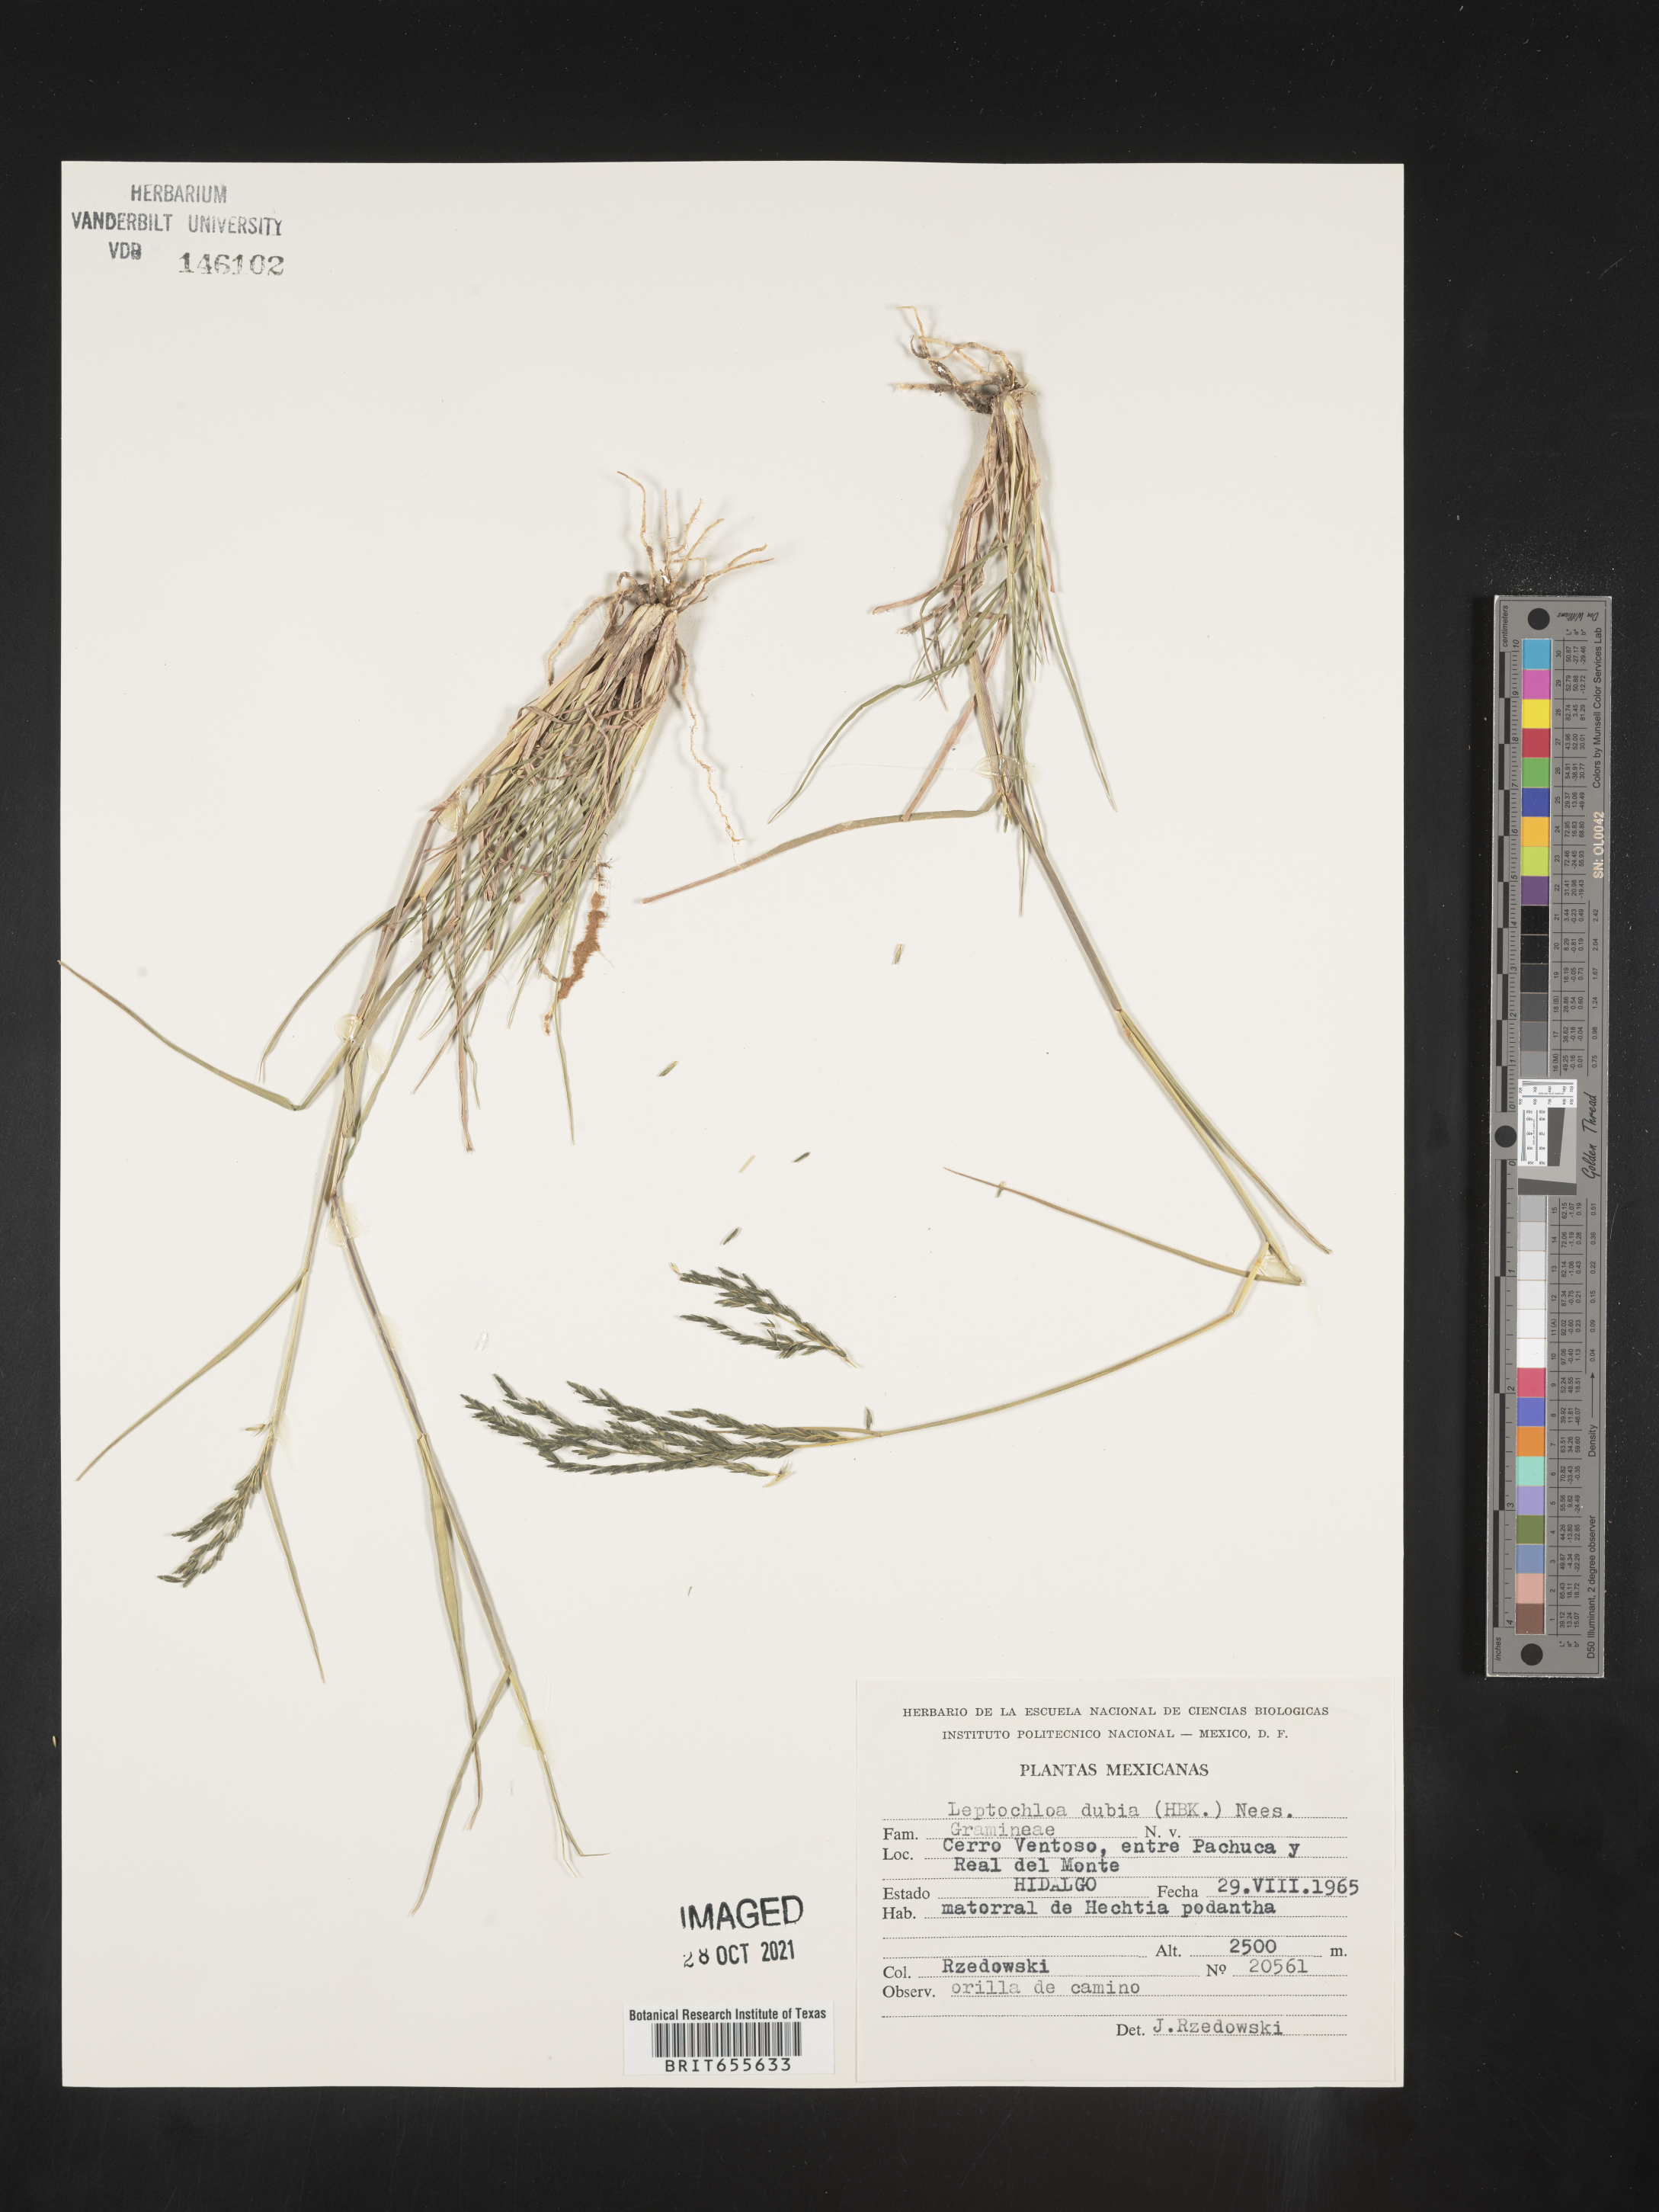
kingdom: Plantae
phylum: Tracheophyta
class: Liliopsida
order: Poales
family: Poaceae
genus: Leptochloa
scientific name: Leptochloa
